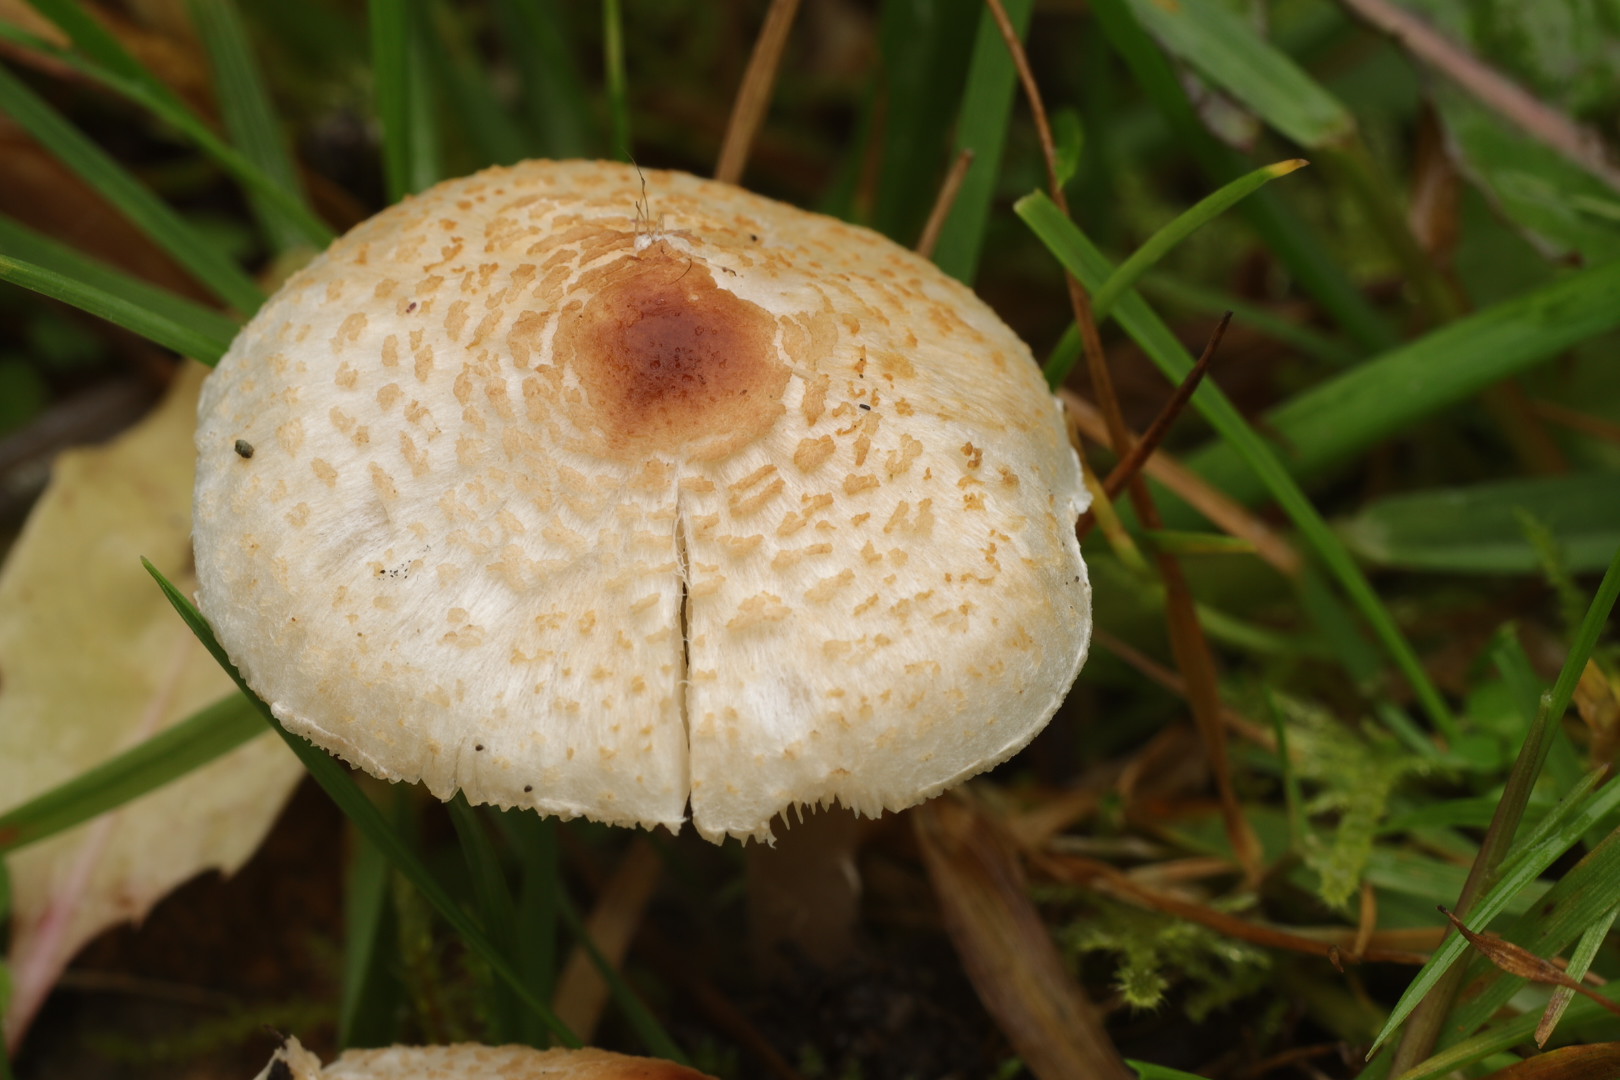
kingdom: Fungi
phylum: Basidiomycota
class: Agaricomycetes
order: Agaricales
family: Agaricaceae
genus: Lepiota
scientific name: Lepiota cristata
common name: stinkende parasolhat
